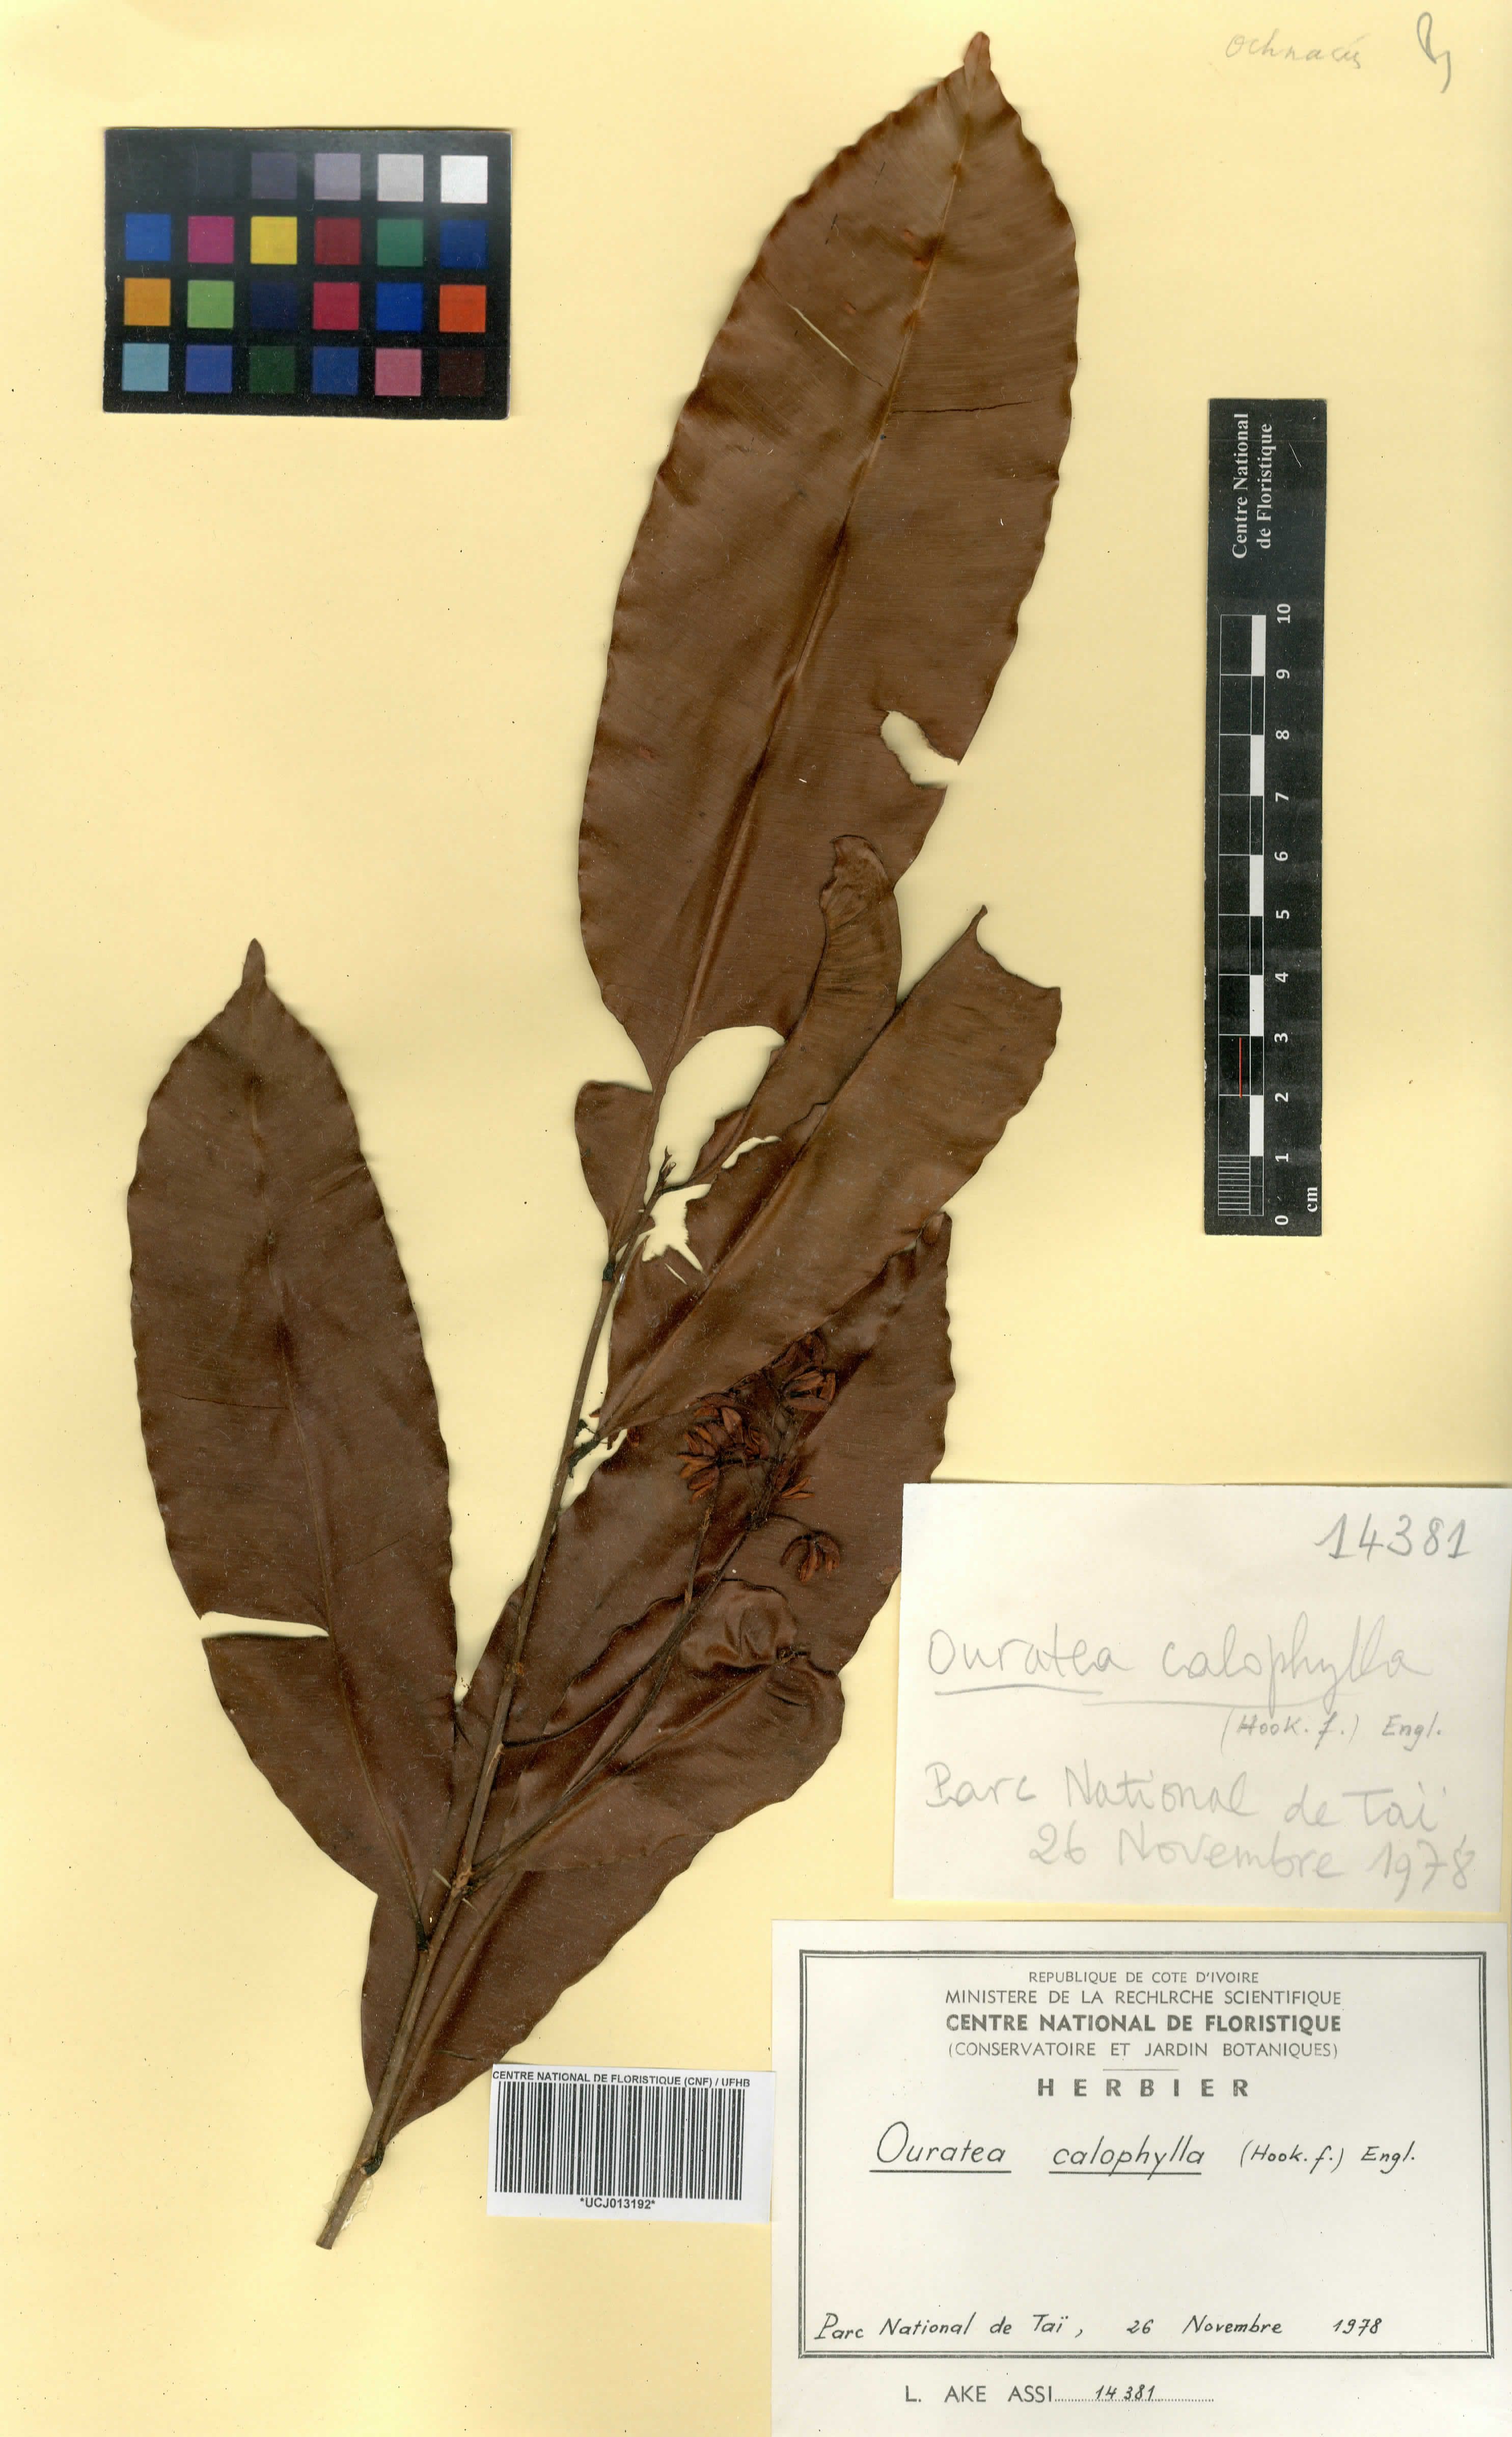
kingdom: Plantae
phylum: Tracheophyta
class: Magnoliopsida
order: Malpighiales
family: Ochnaceae
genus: Rhabdophyllum
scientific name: Rhabdophyllum calophyllum
